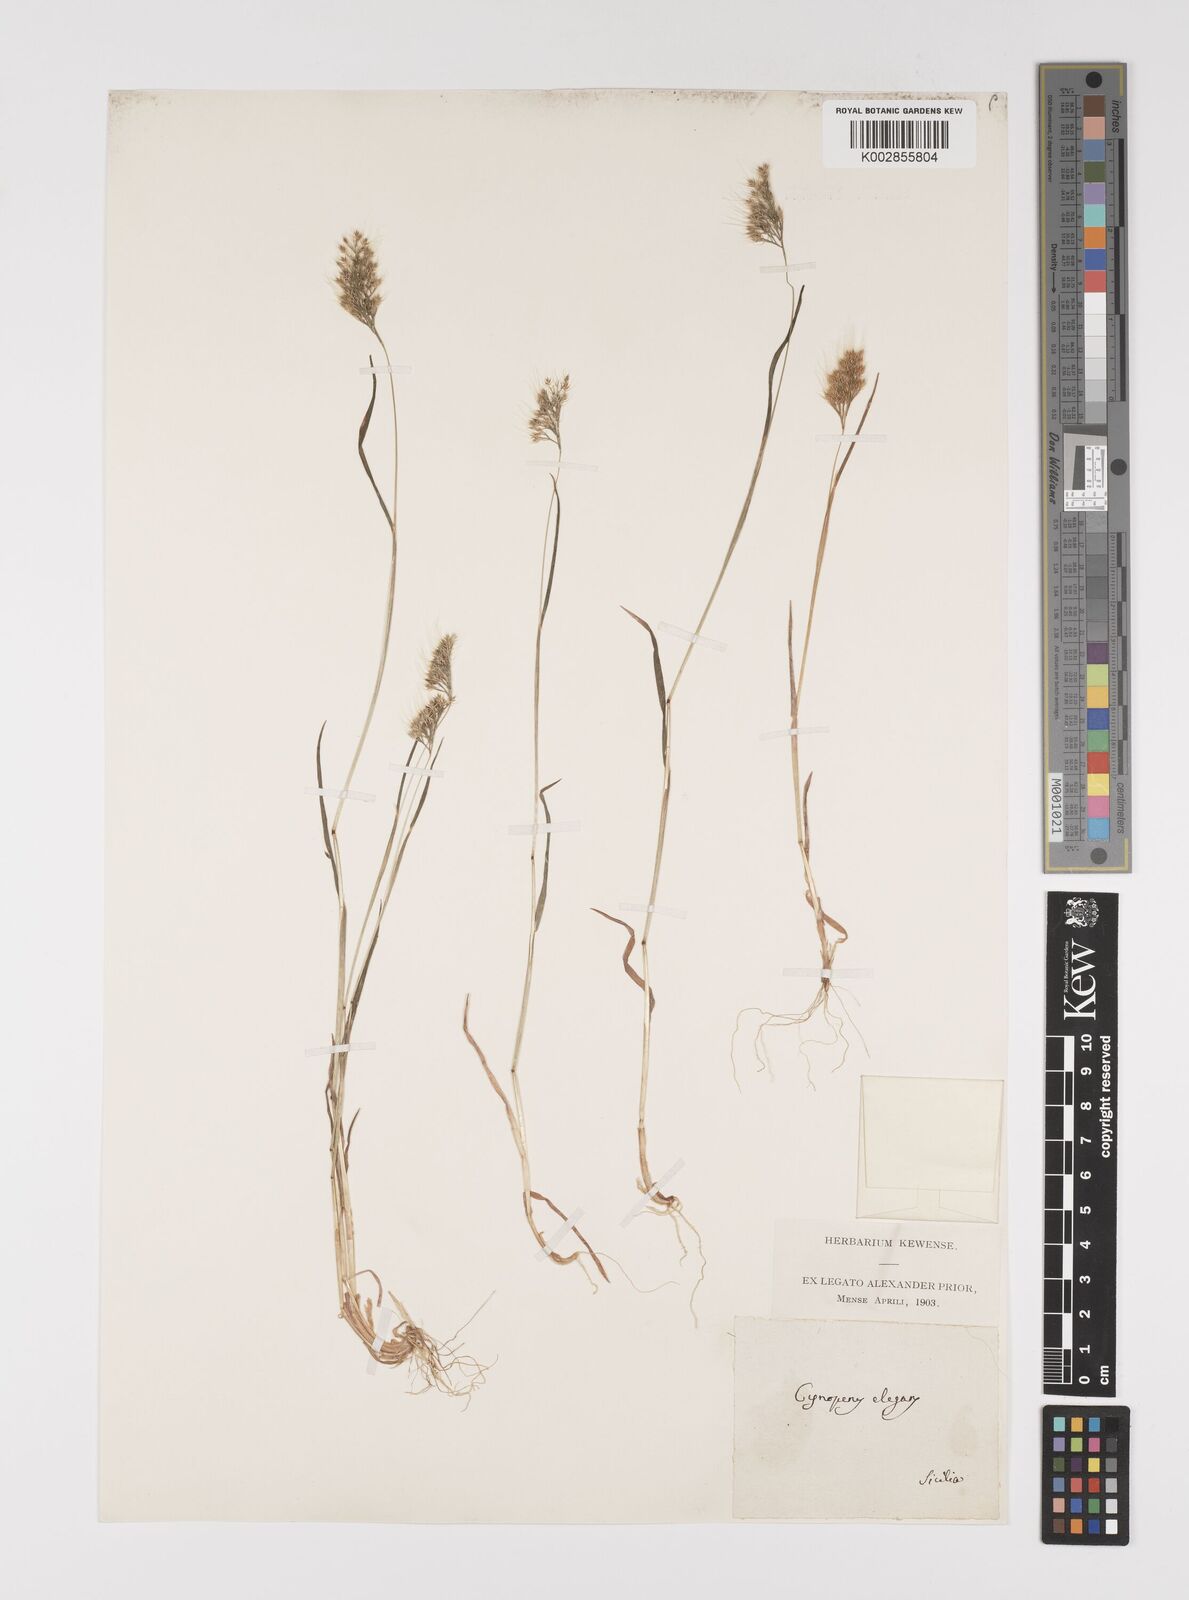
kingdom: Plantae
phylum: Tracheophyta
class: Liliopsida
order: Poales
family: Poaceae
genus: Cynosurus
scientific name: Cynosurus elegans
